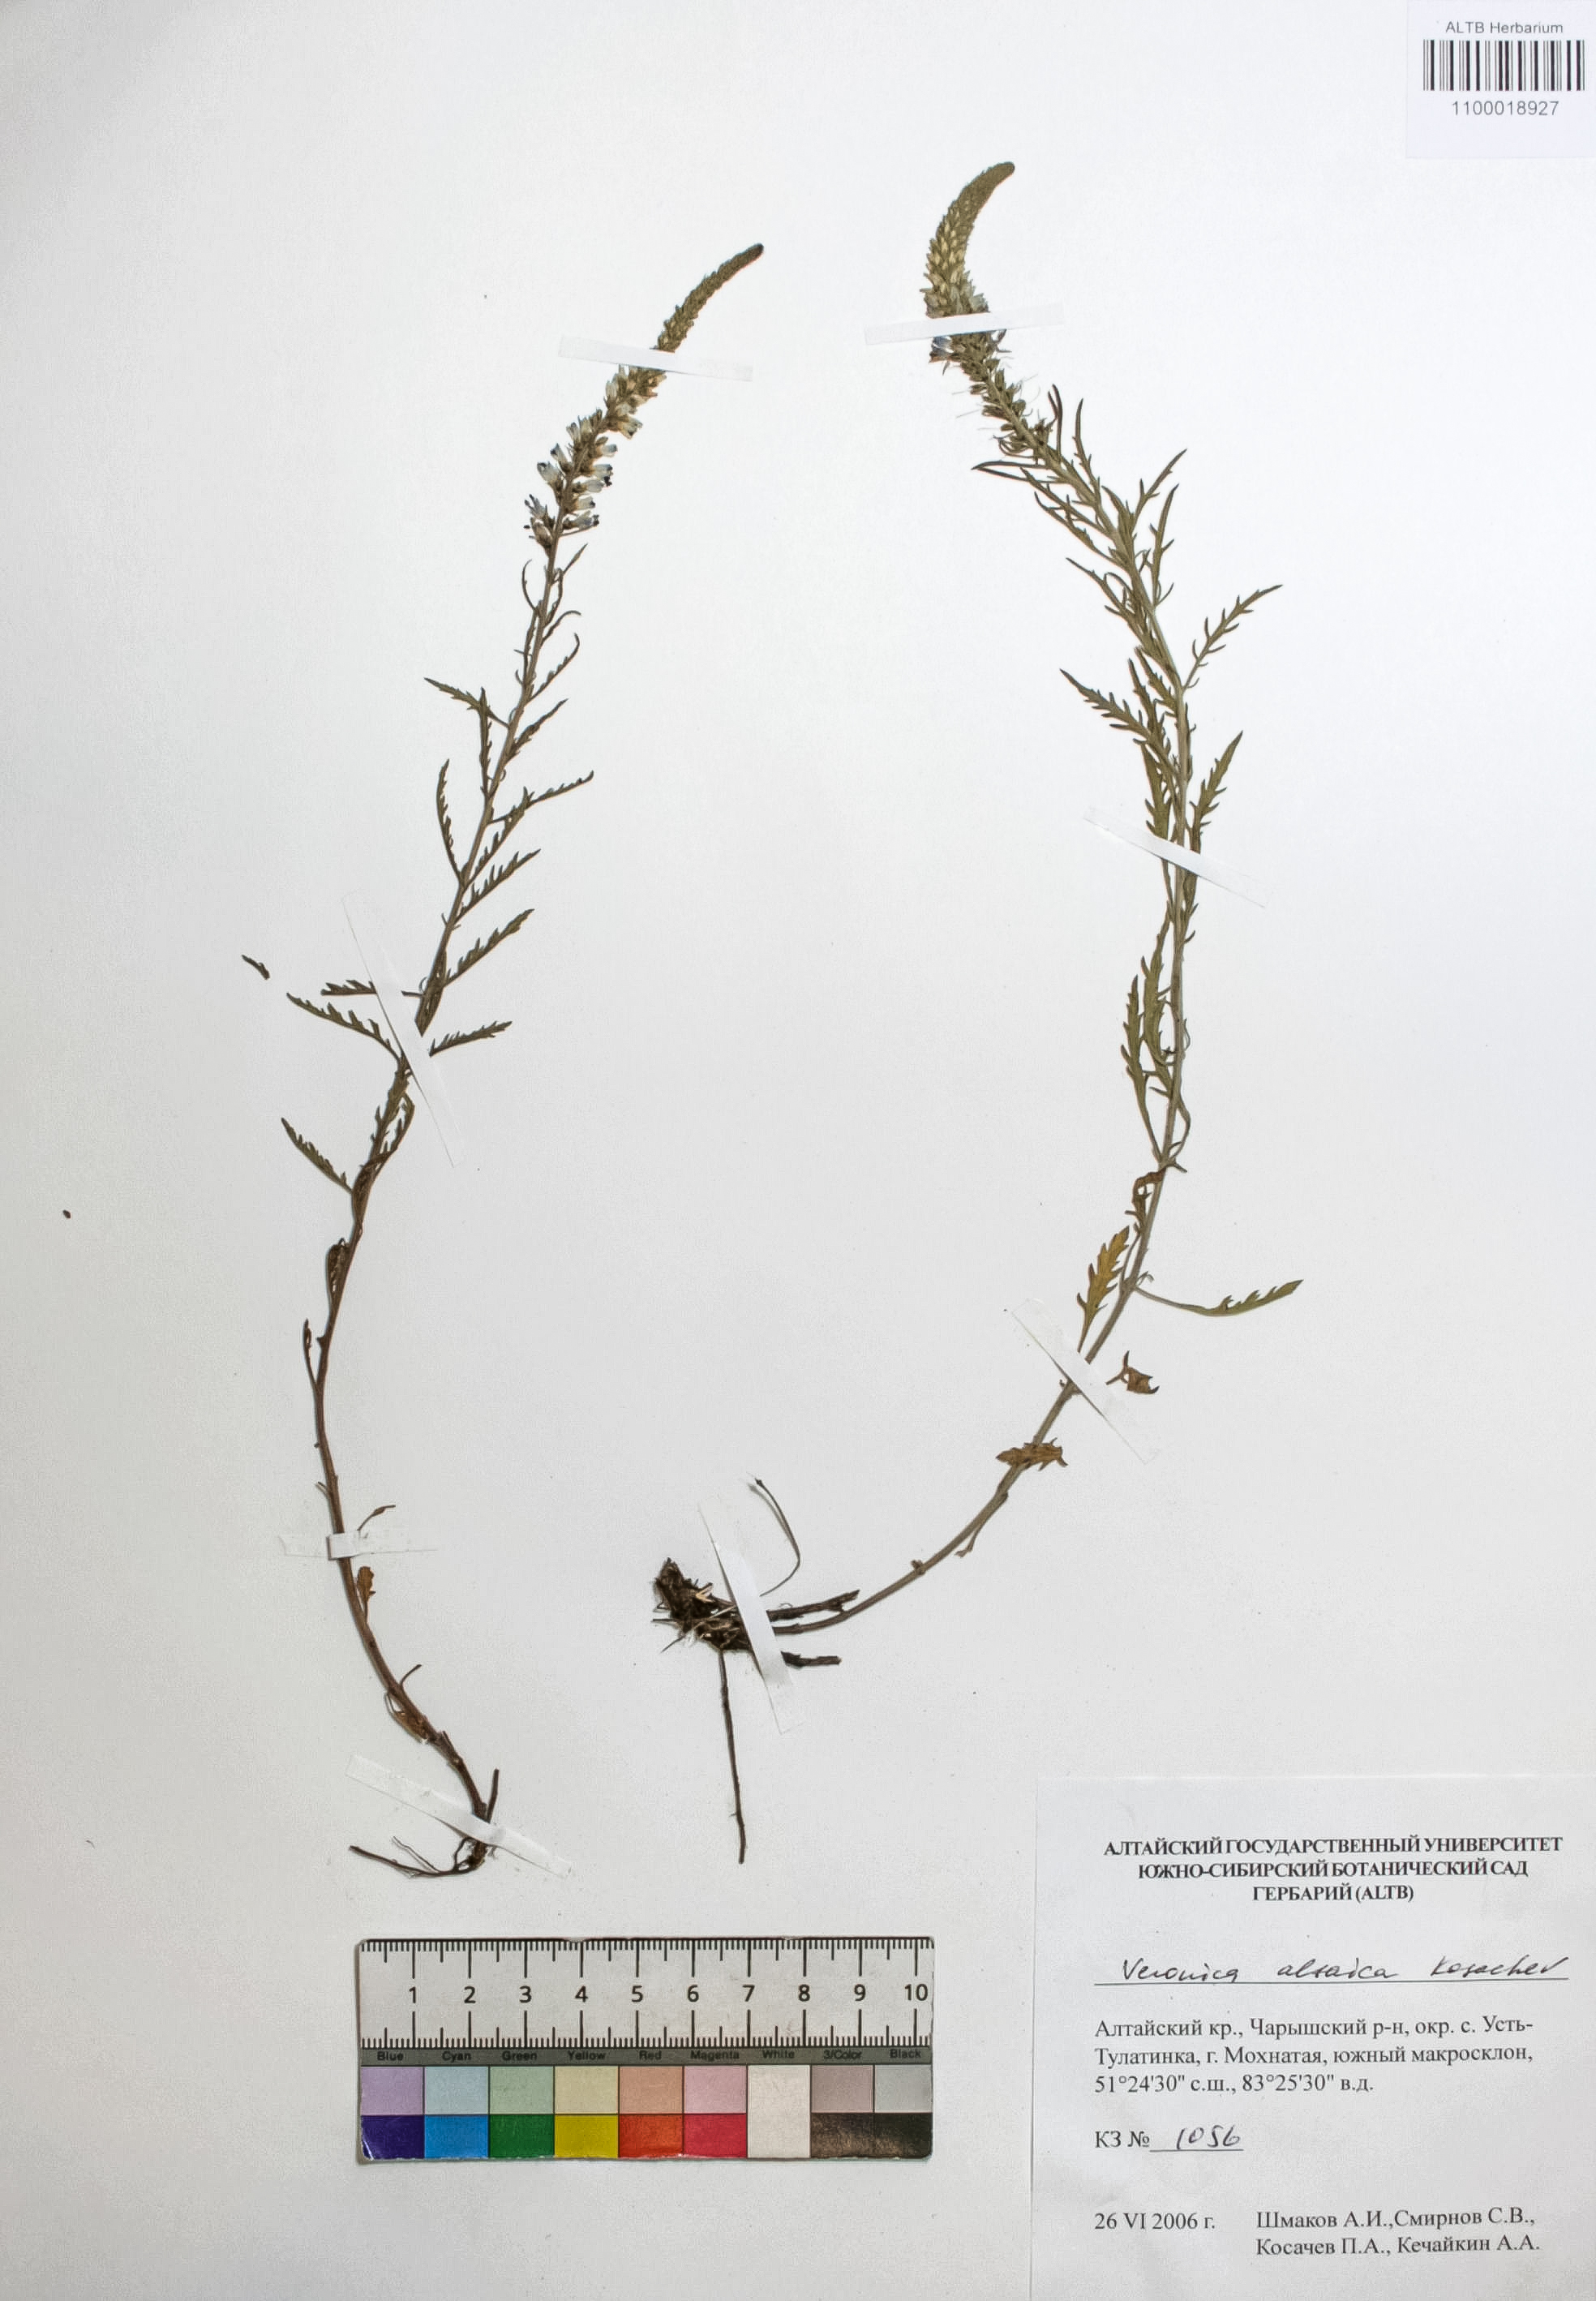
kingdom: Plantae
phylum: Tracheophyta
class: Magnoliopsida
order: Lamiales
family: Plantaginaceae
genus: Veronica
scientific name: Veronica altaica
